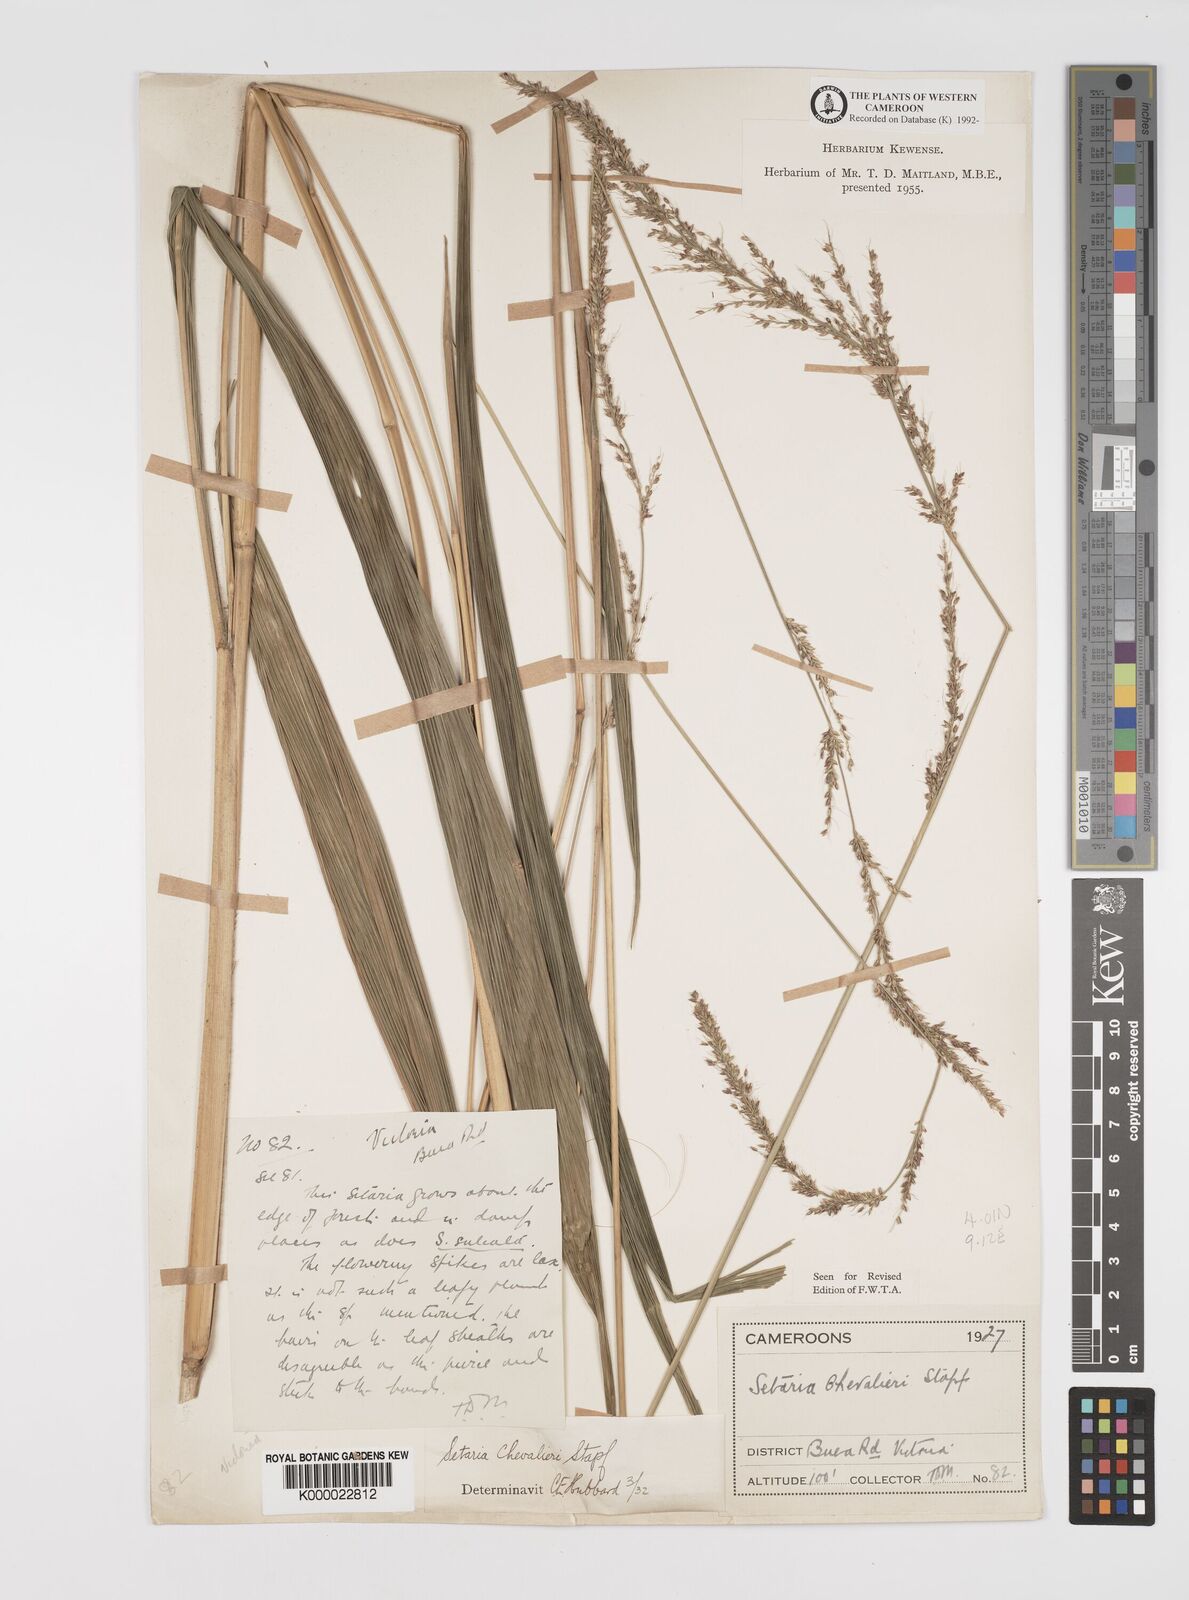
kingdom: Plantae
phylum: Tracheophyta
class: Liliopsida
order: Poales
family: Poaceae
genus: Setaria
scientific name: Setaria megaphylla
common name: Bigleaf bristlegrass
